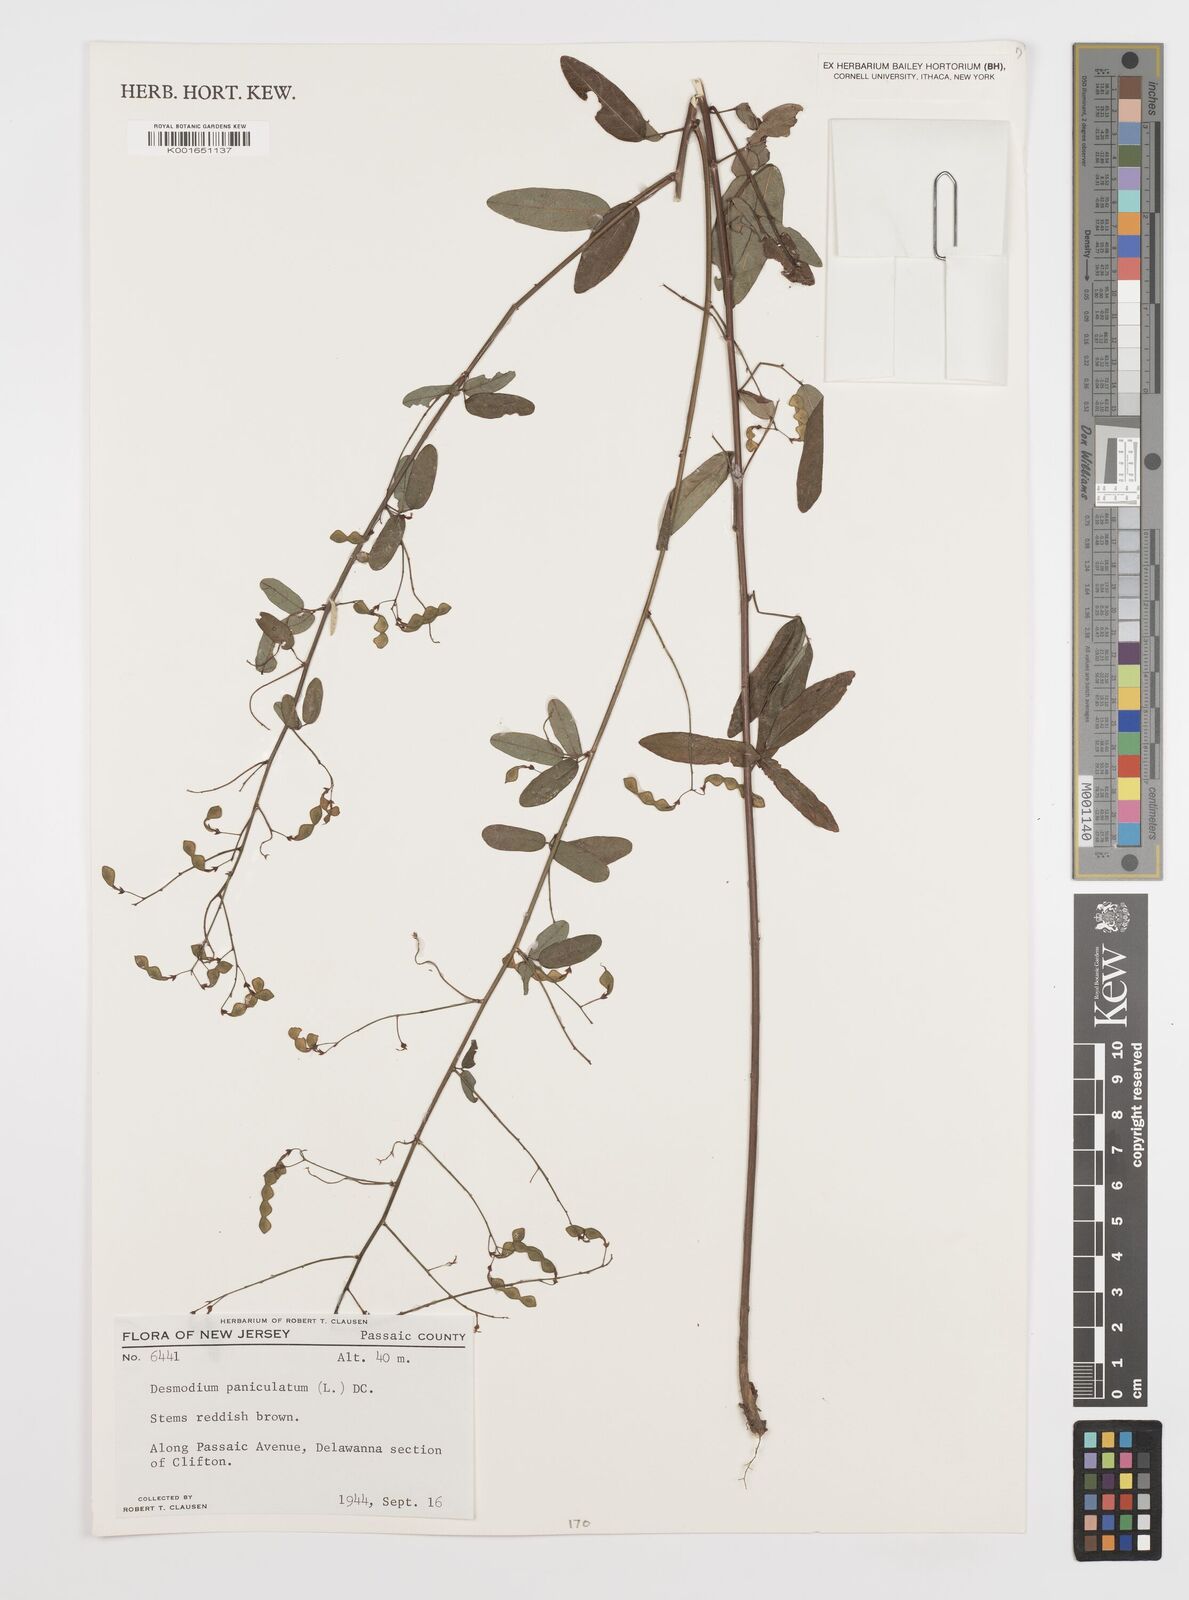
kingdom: Plantae
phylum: Tracheophyta
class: Magnoliopsida
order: Fabales
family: Fabaceae
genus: Desmodium
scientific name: Desmodium paniculatum
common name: Panicled tick-clover
